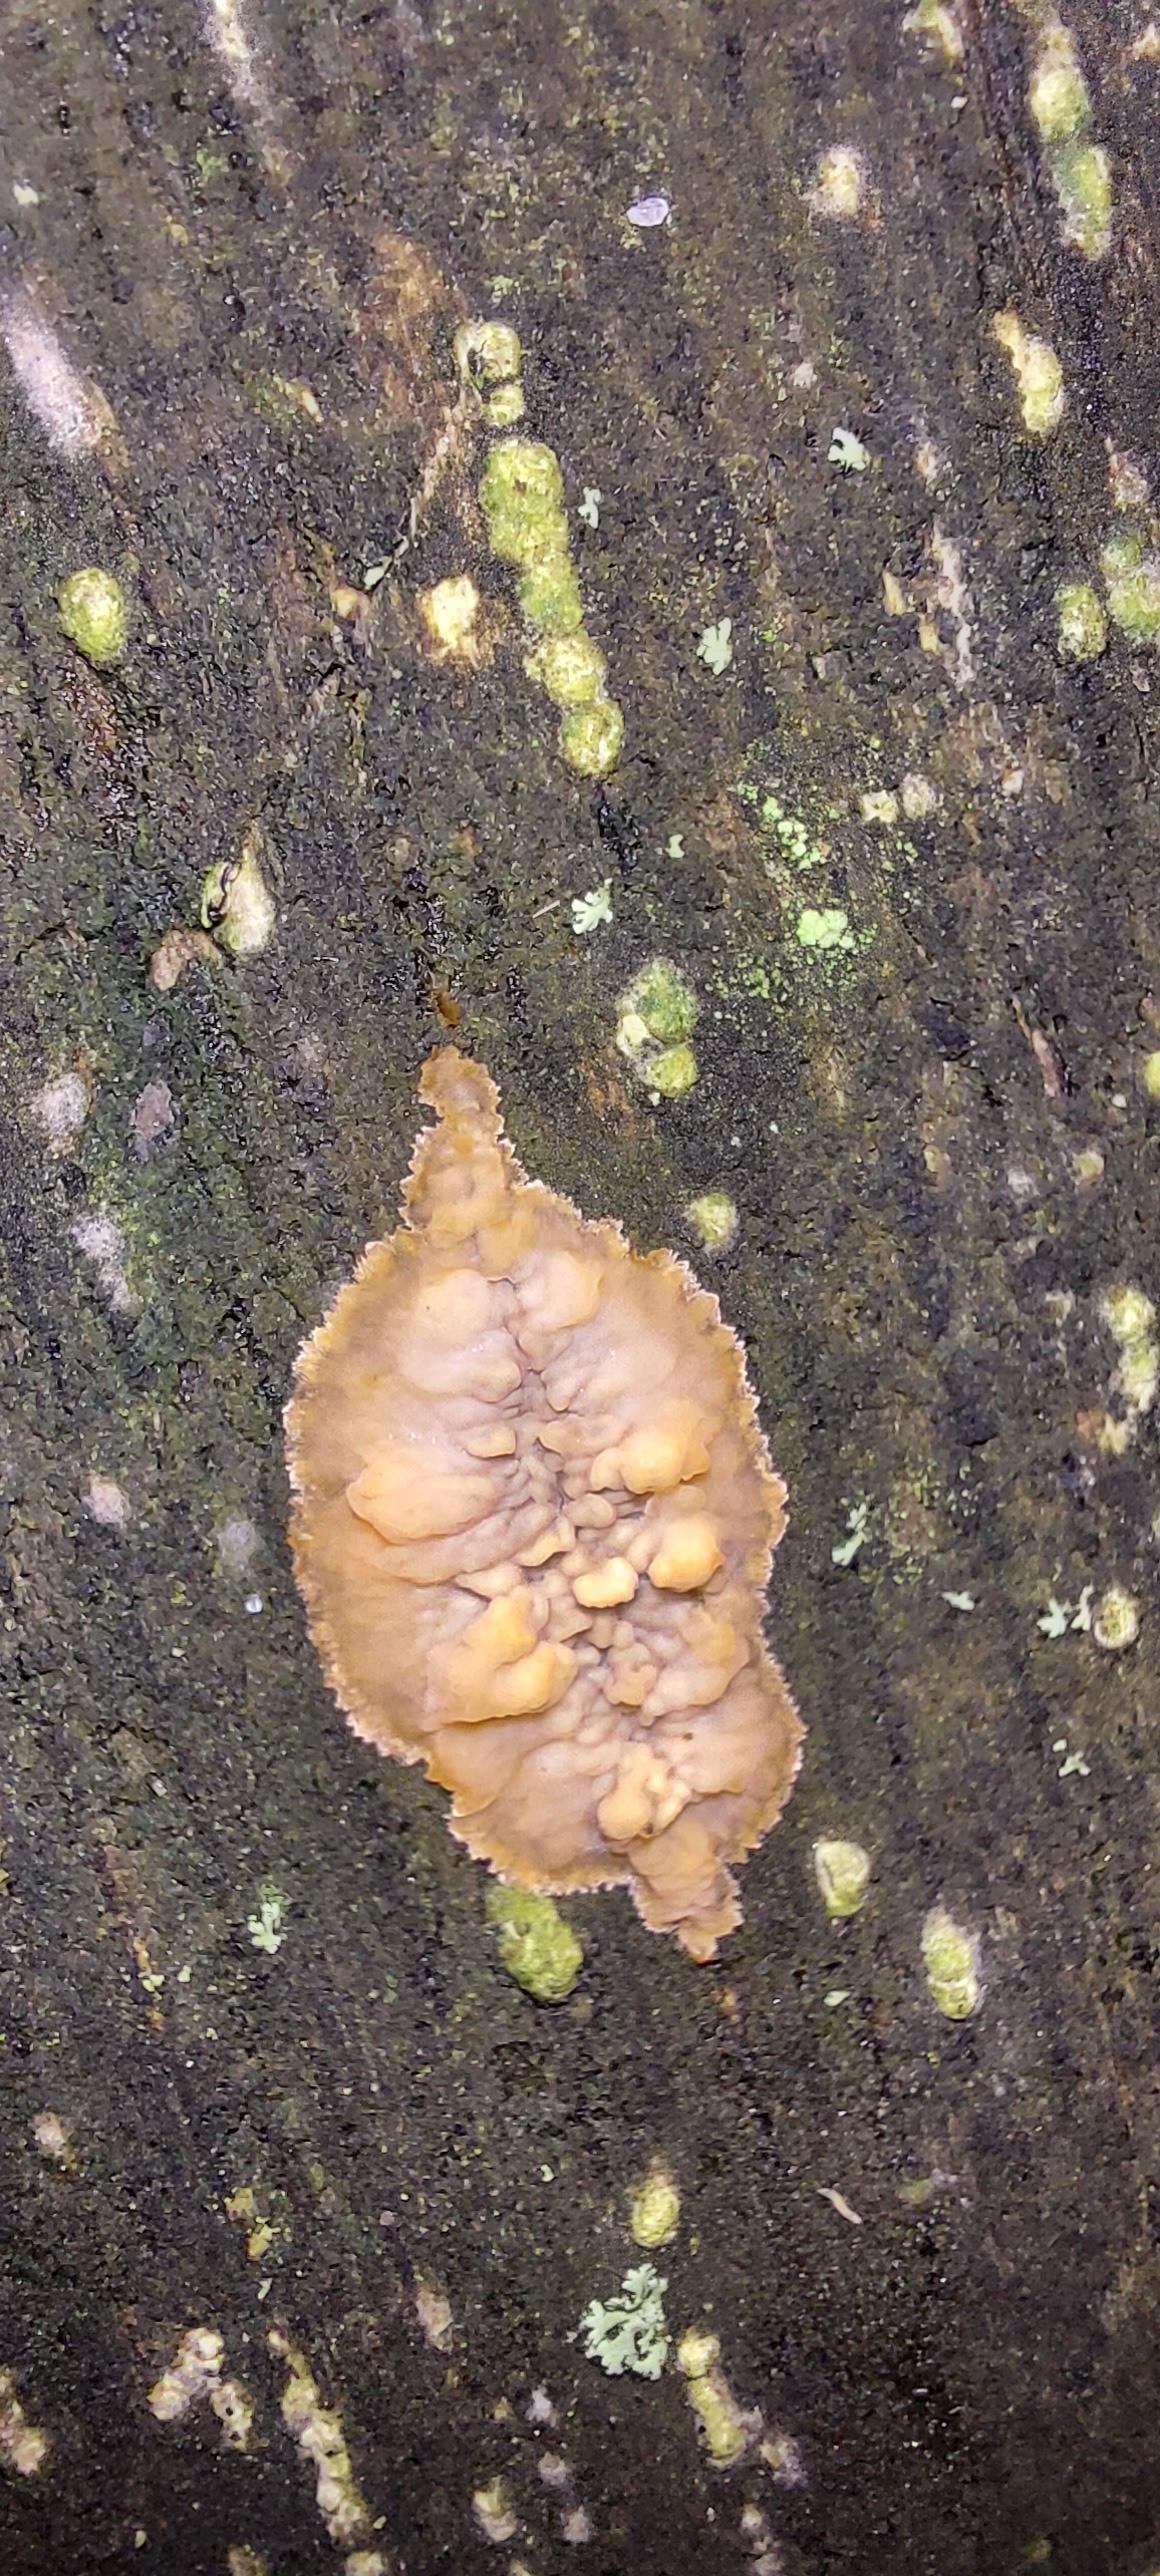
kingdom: Fungi
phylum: Basidiomycota
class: Agaricomycetes
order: Polyporales
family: Meruliaceae
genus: Phlebia
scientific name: Phlebia radiata
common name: stråle-åresvamp
